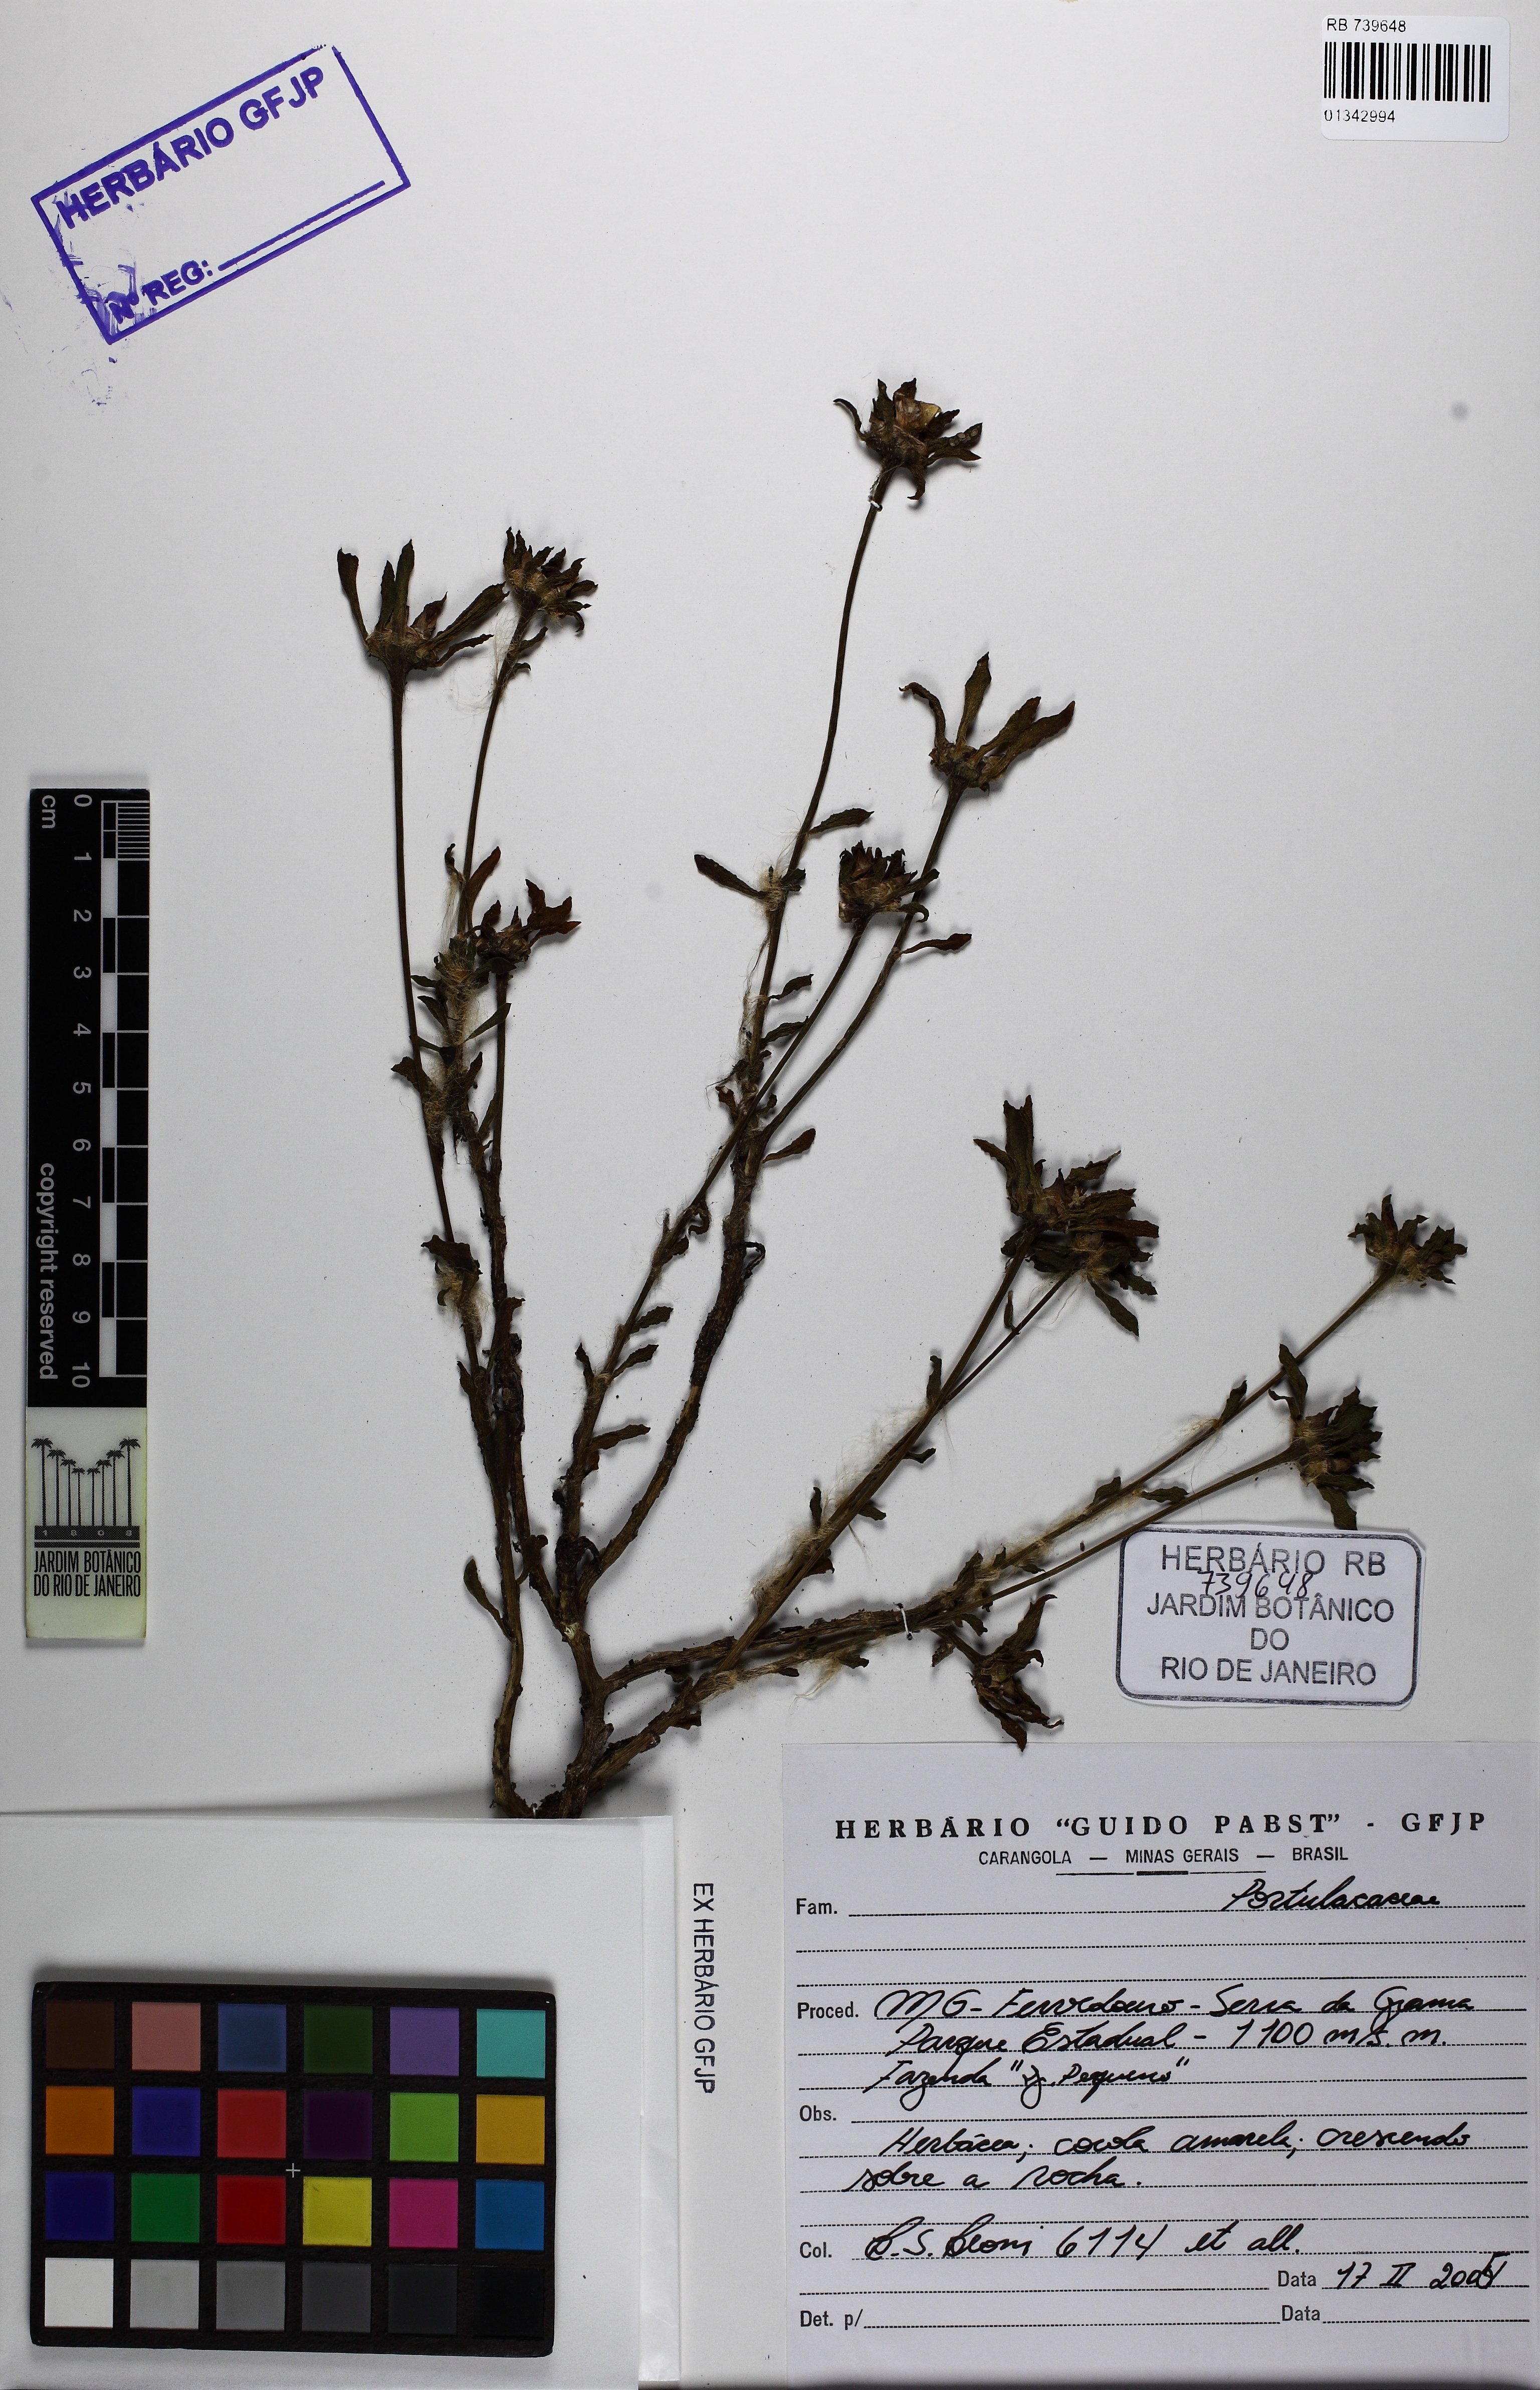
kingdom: Plantae
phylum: Tracheophyta
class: Magnoliopsida
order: Caryophyllales
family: Portulacaceae
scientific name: Portulacaceae
